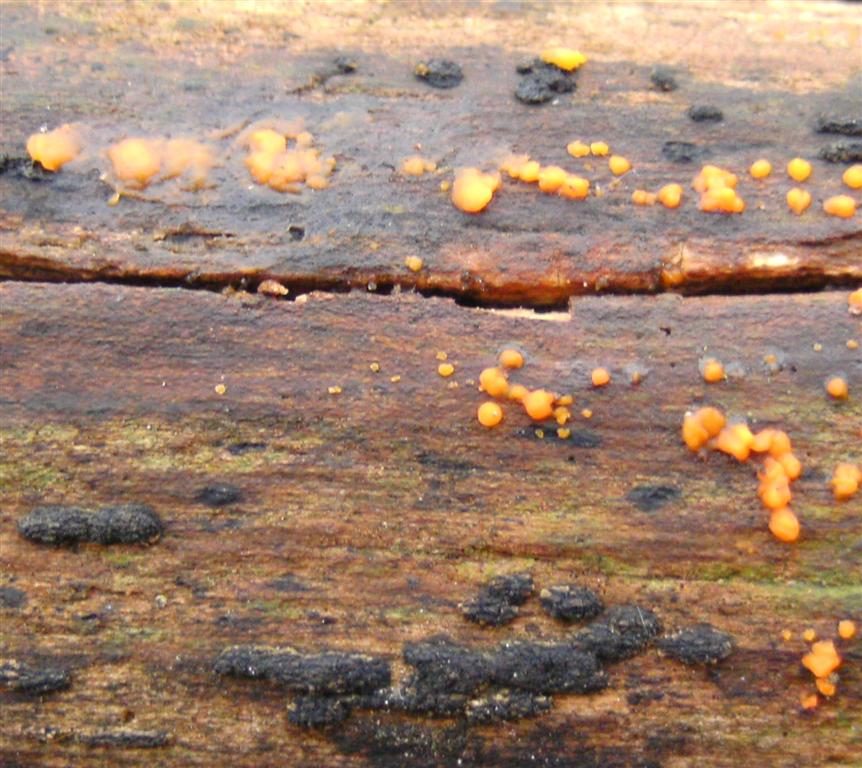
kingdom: Fungi
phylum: Basidiomycota
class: Dacrymycetes
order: Dacrymycetales
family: Dacrymycetaceae
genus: Dacrymyces
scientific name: Dacrymyces stillatus
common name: almindelig tåresvamp
